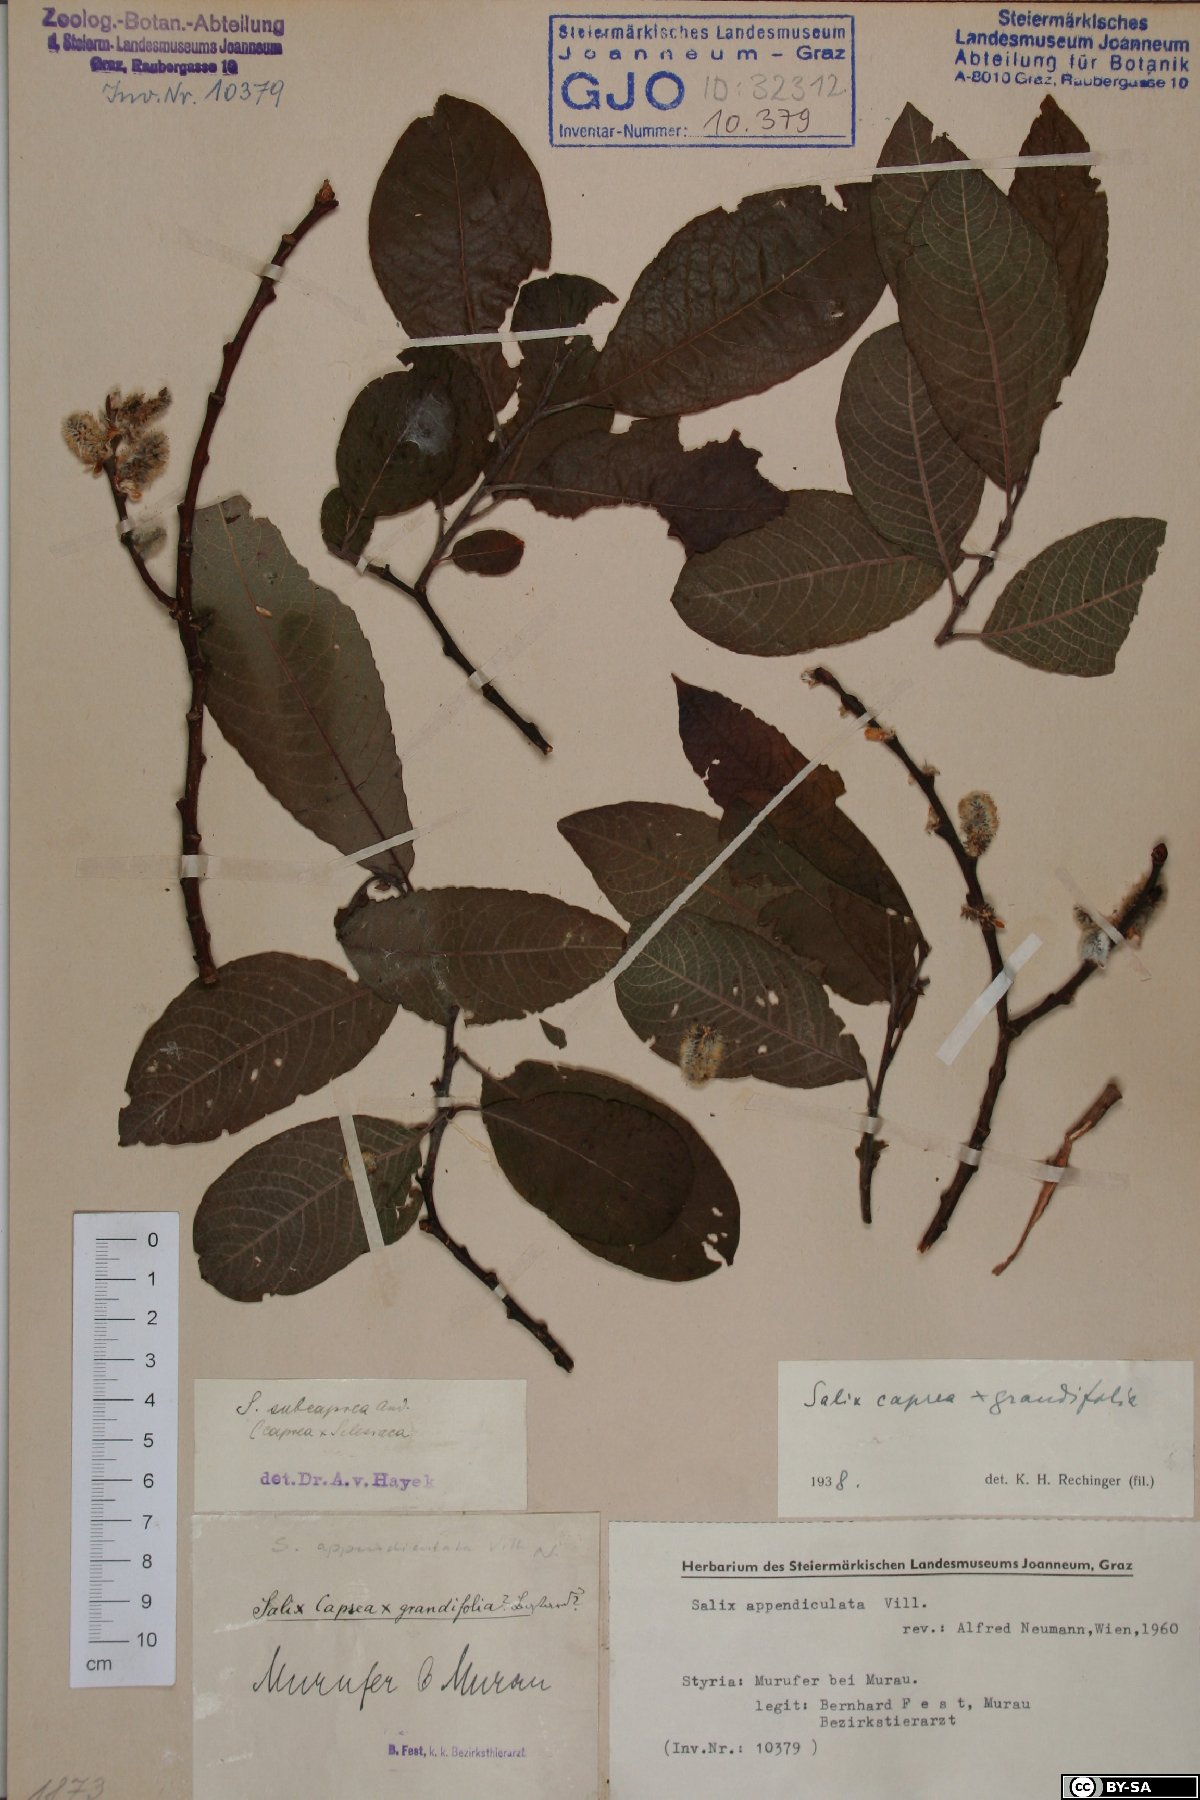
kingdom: Plantae
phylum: Tracheophyta
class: Magnoliopsida
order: Malpighiales
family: Salicaceae
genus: Salix
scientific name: Salix appendiculata
